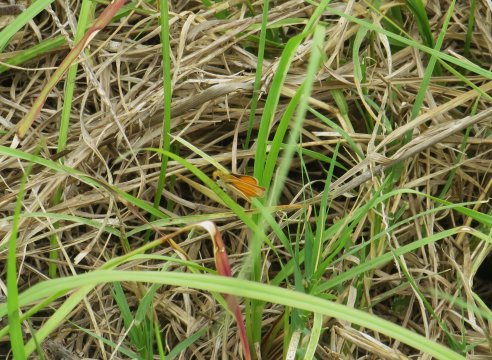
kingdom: Animalia
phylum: Arthropoda
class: Insecta
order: Lepidoptera
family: Hesperiidae
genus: Copaeodes
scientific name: Copaeodes minima
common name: Southern Skipperling
